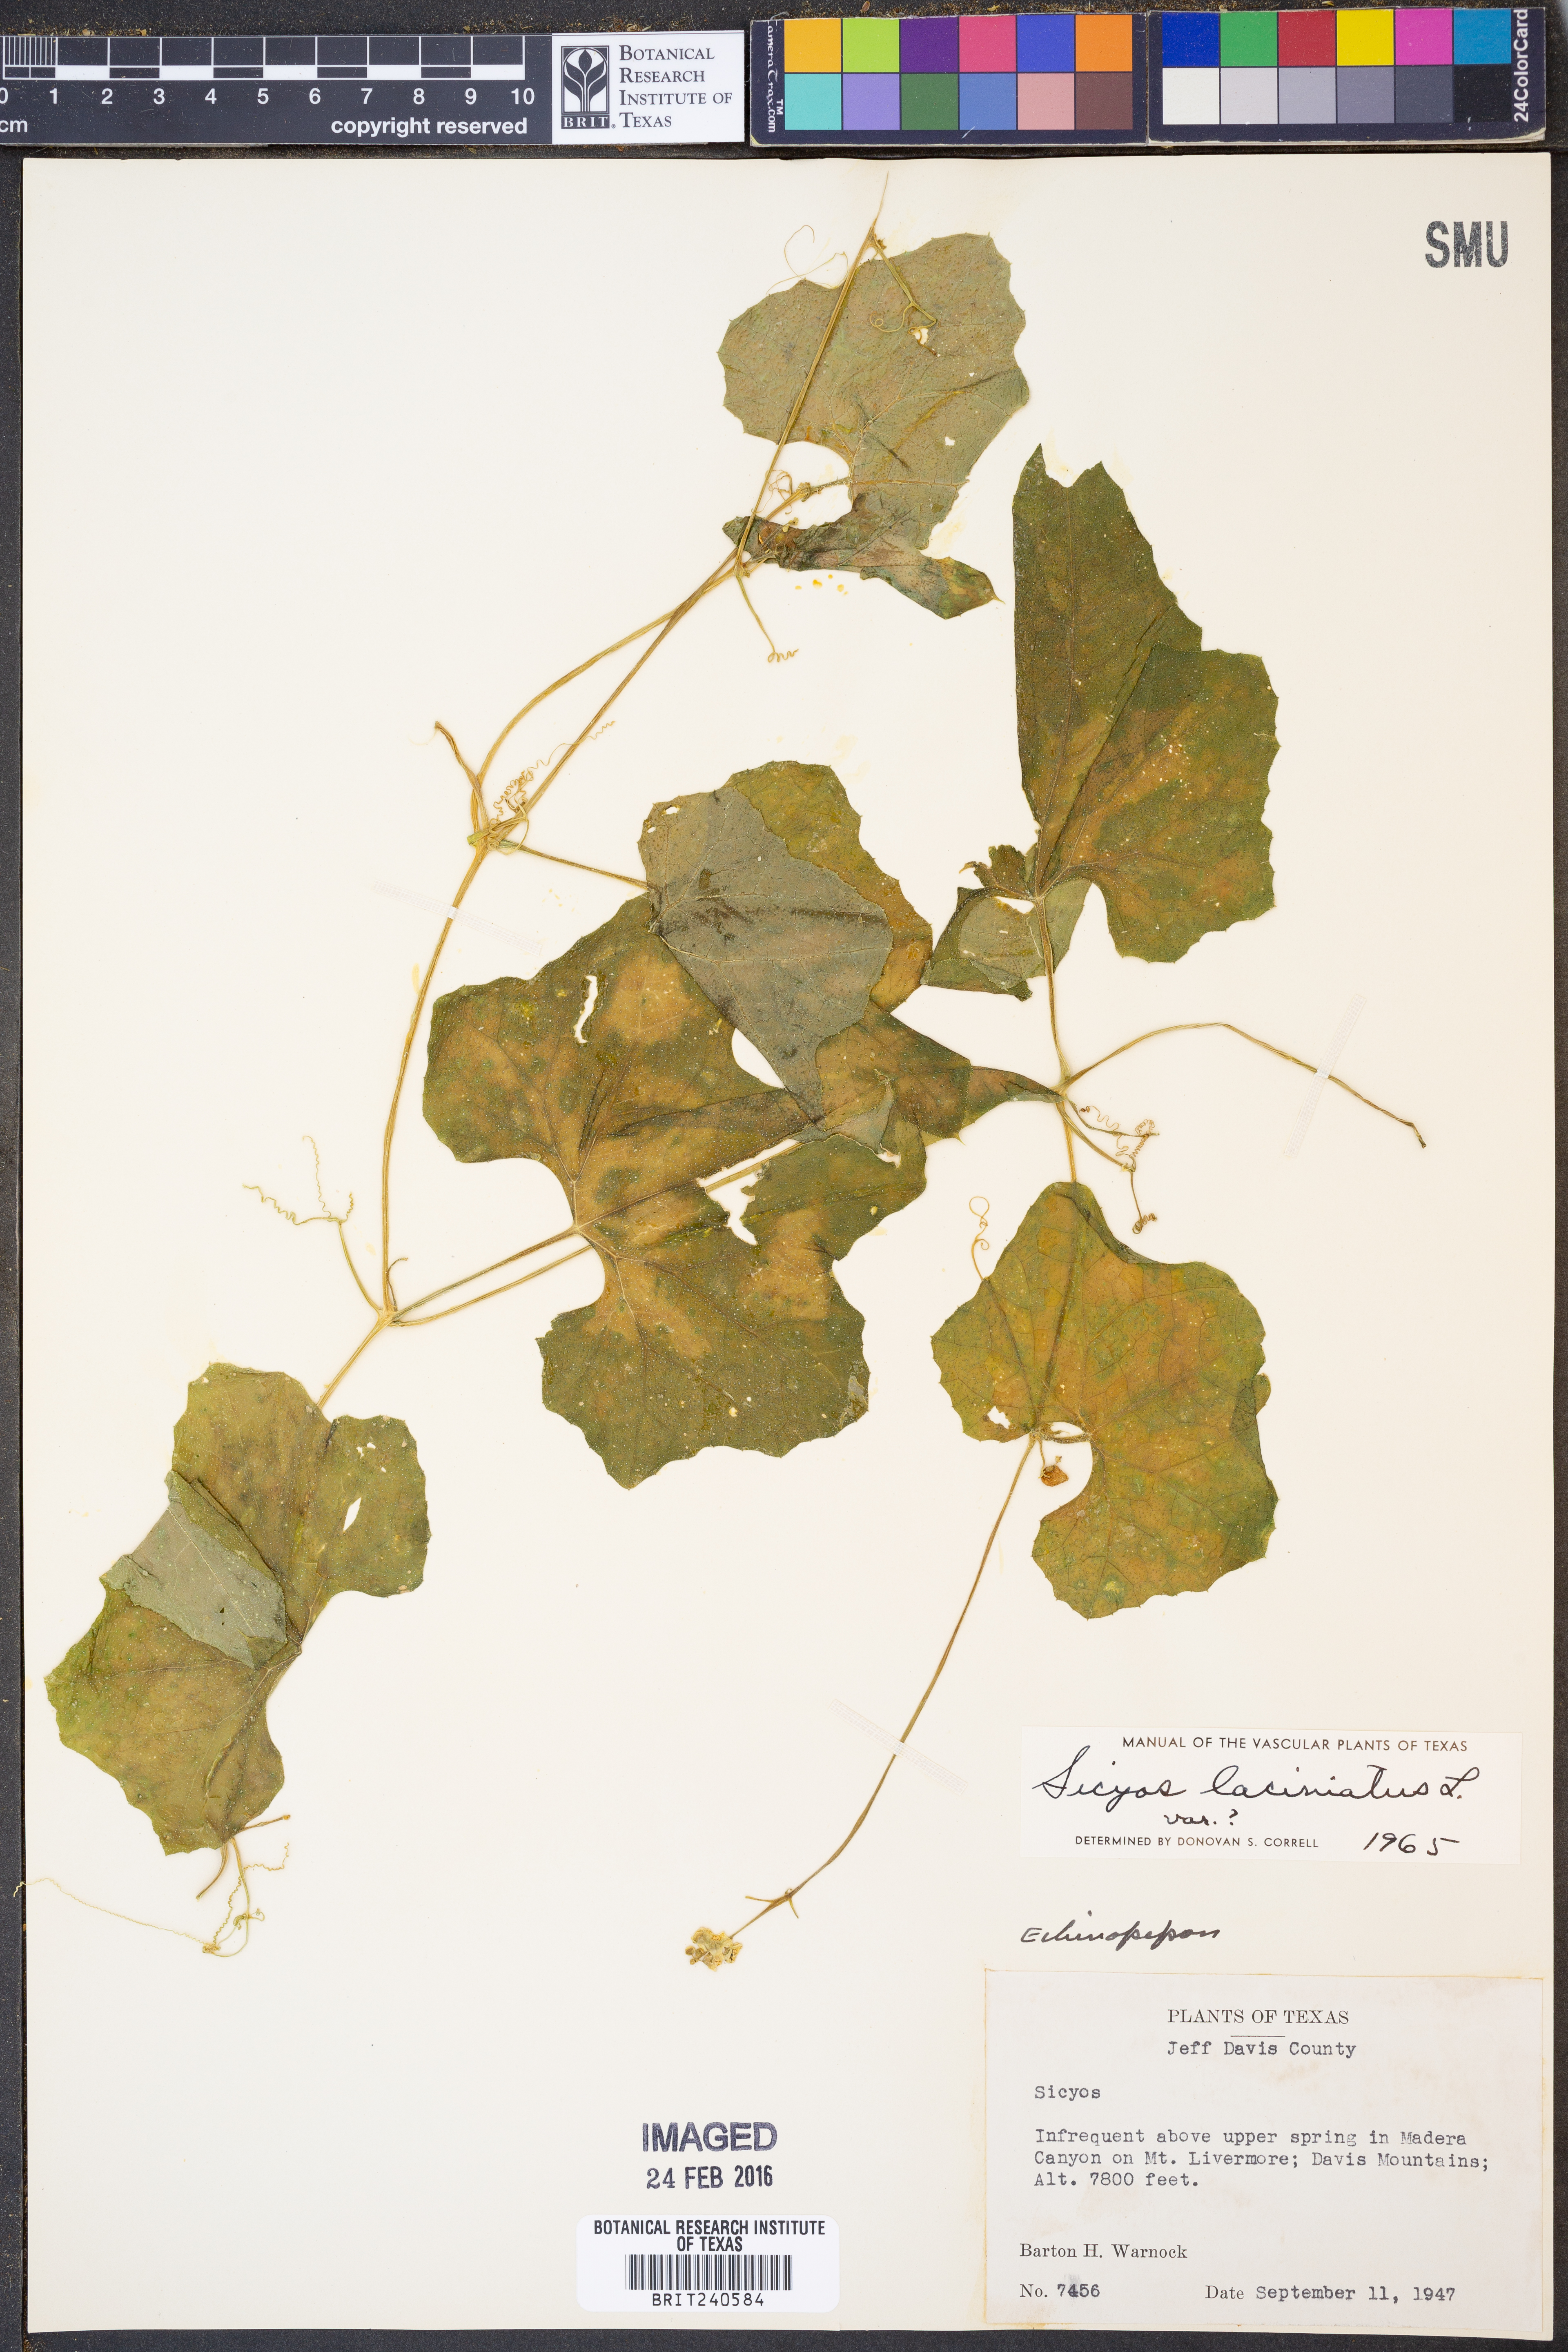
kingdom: Plantae
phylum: Tracheophyta
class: Magnoliopsida
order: Cucurbitales
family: Cucurbitaceae
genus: Sicyos
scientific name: Sicyos laciniatus
